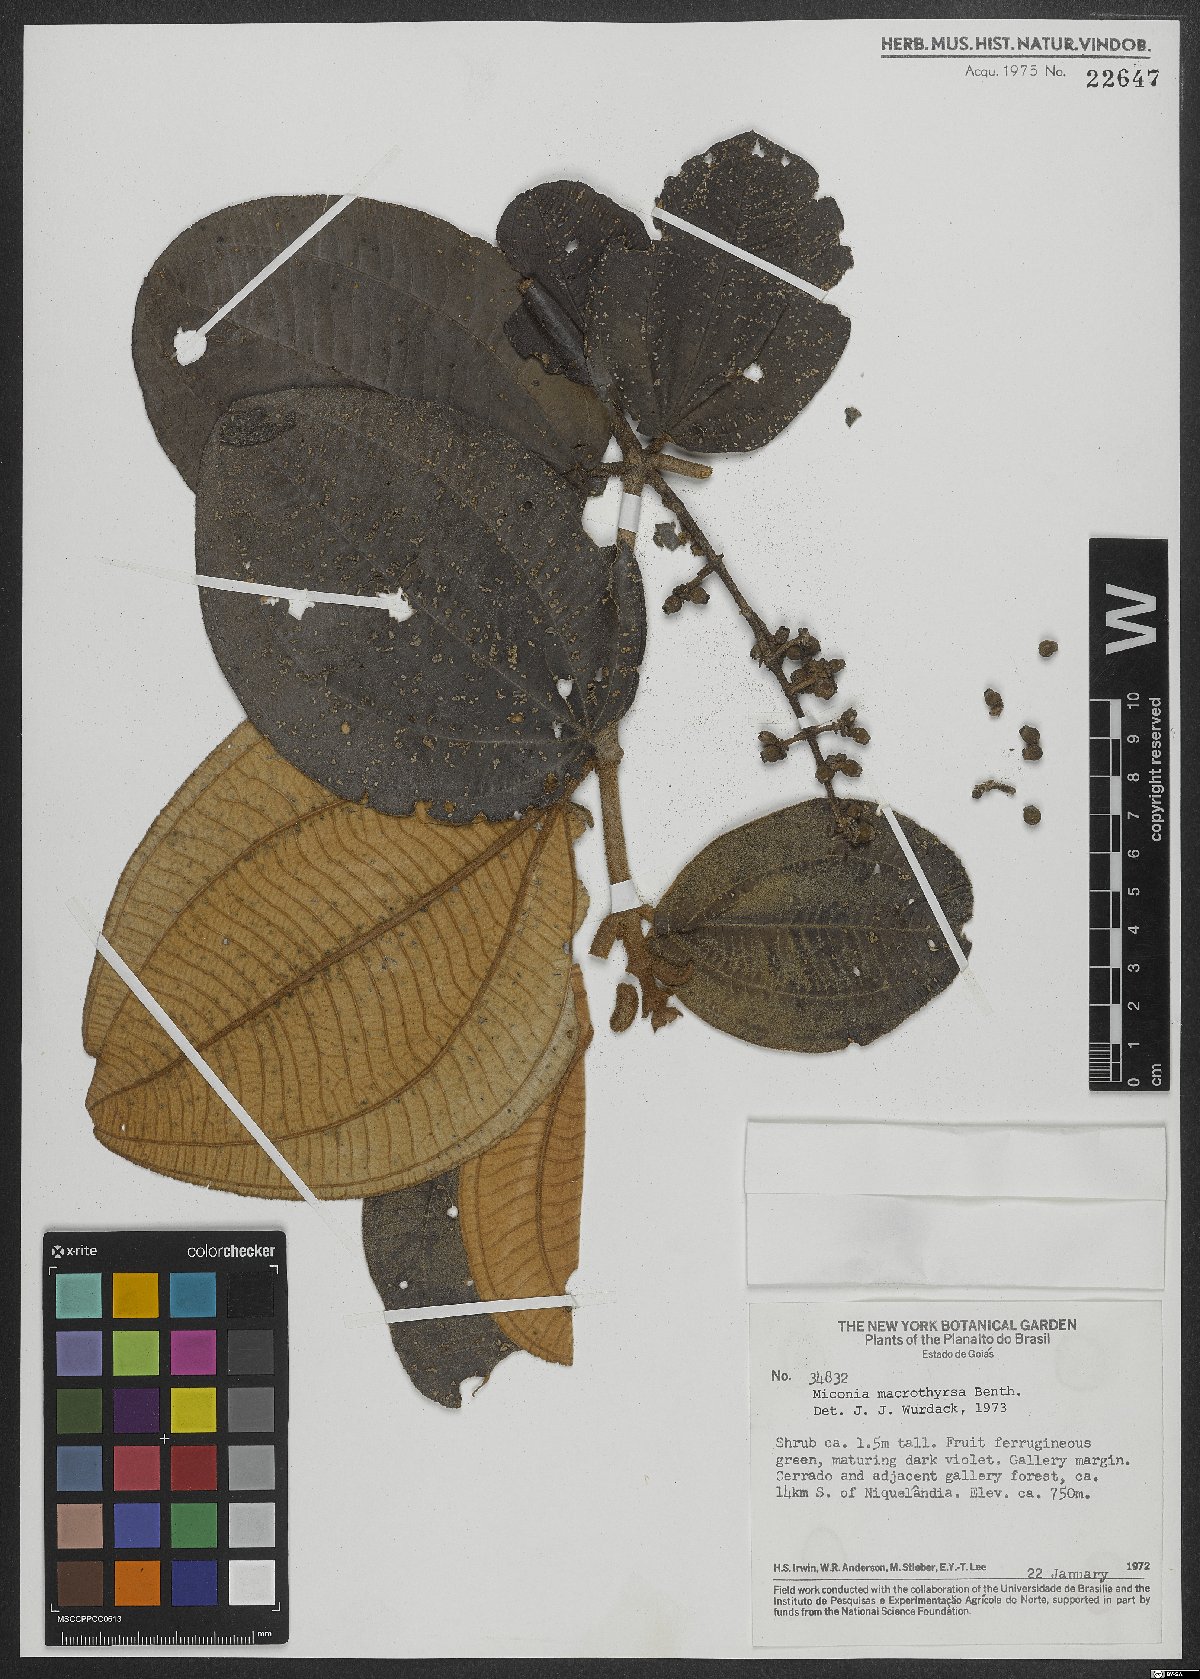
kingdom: Plantae
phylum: Tracheophyta
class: Magnoliopsida
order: Myrtales
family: Melastomataceae
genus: Miconia
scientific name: Miconia macrothyrsa
